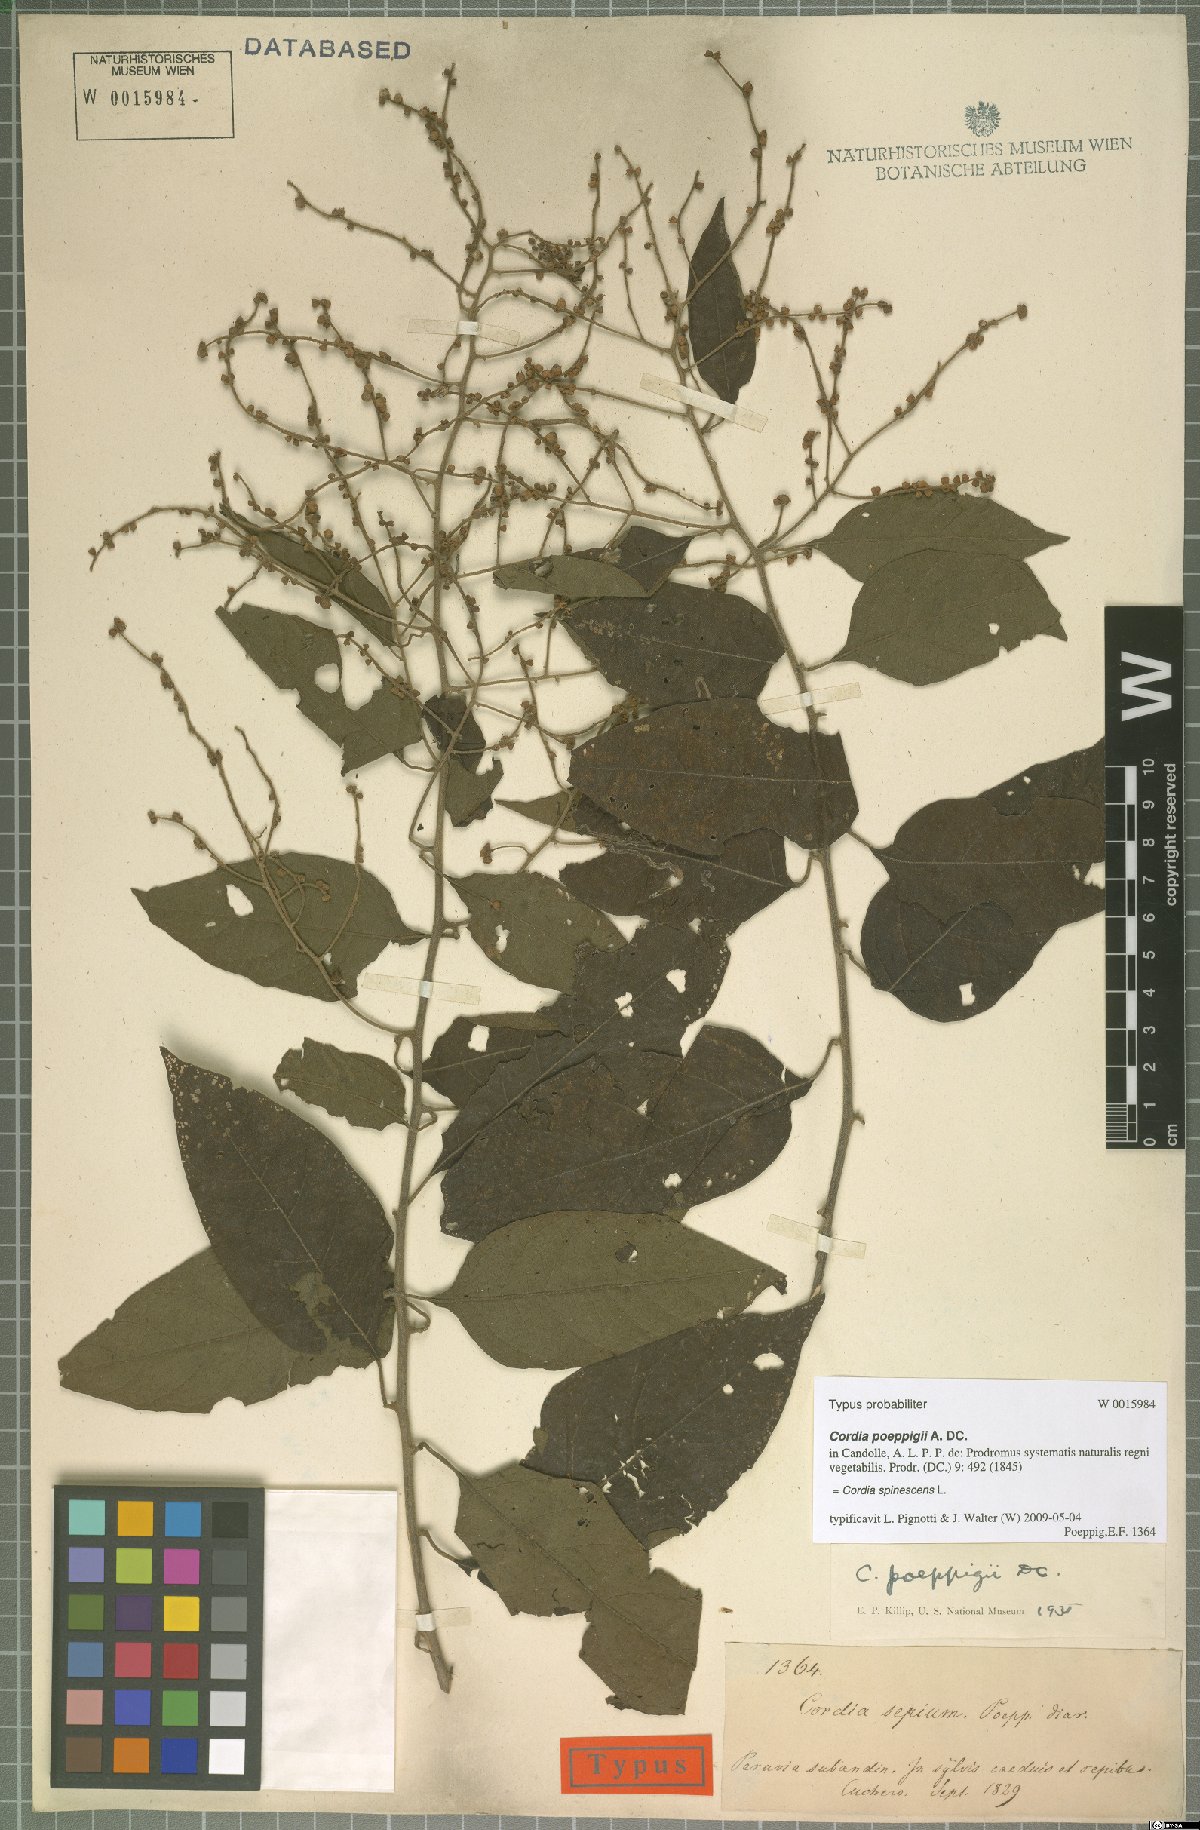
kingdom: Plantae
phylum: Tracheophyta
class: Magnoliopsida
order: Boraginales
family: Cordiaceae
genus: Varronia
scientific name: Varronia spinescens
